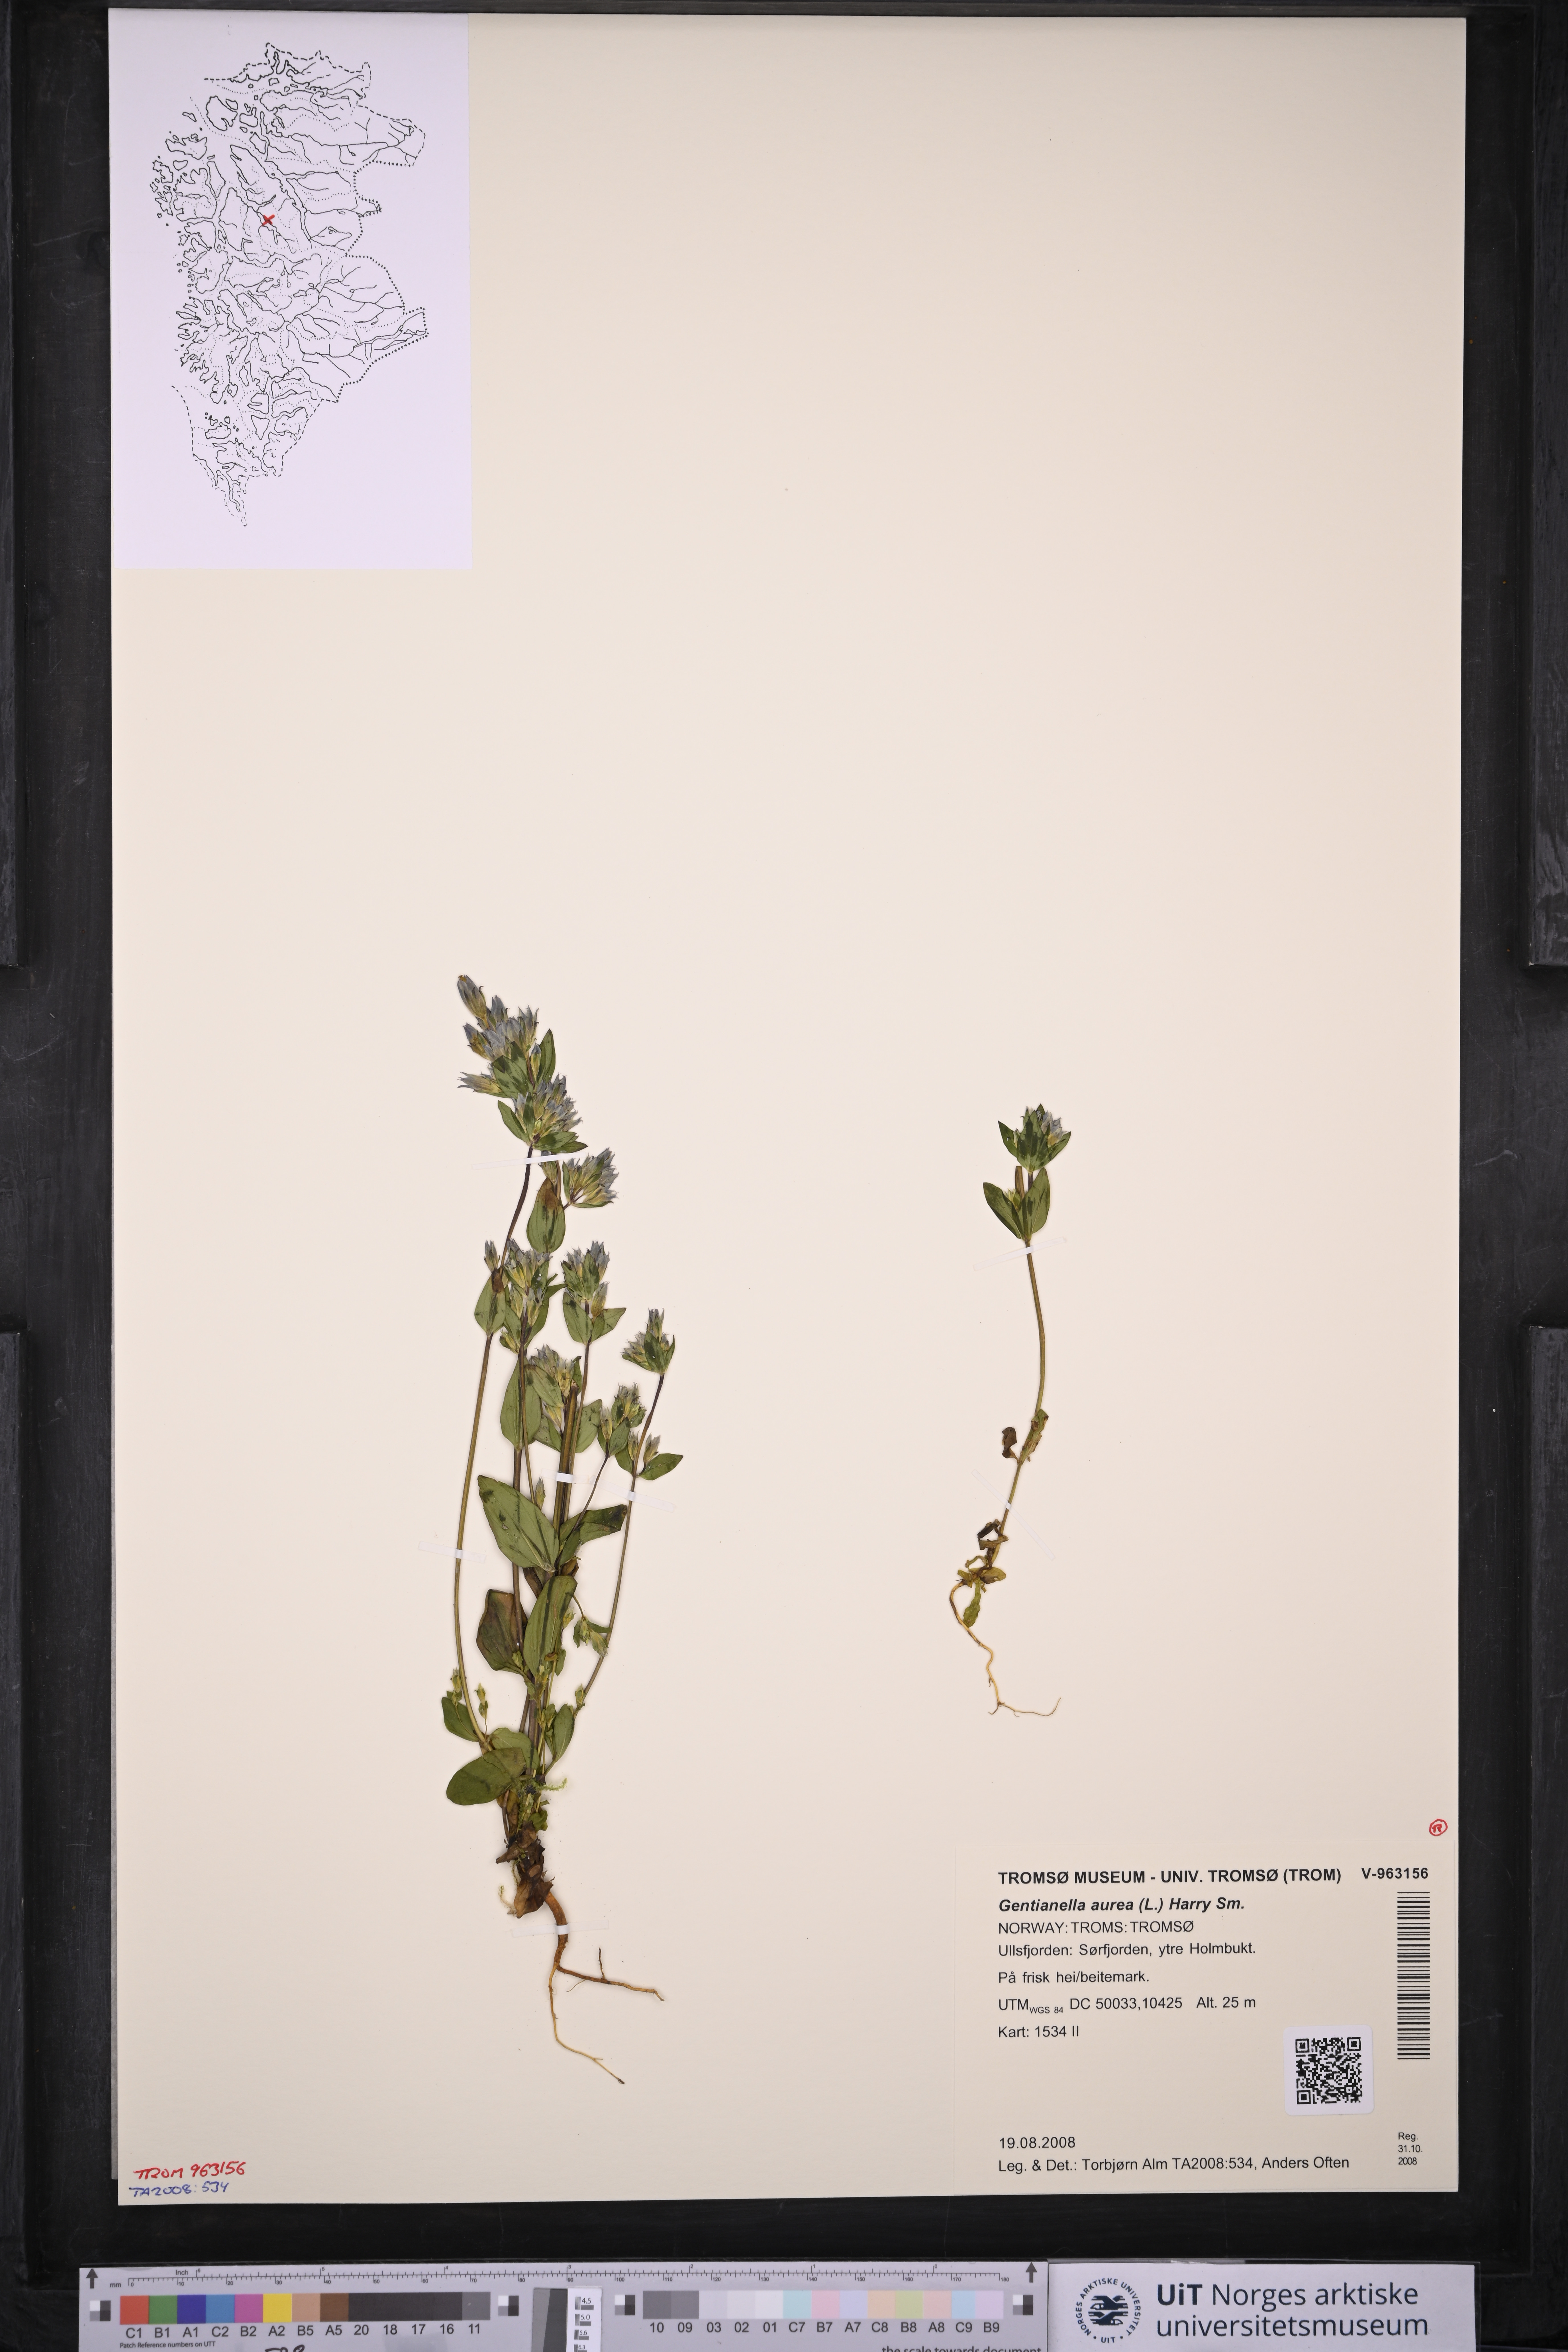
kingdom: Plantae
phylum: Tracheophyta
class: Magnoliopsida
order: Gentianales
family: Gentianaceae
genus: Gentianella
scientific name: Gentianella aurea
